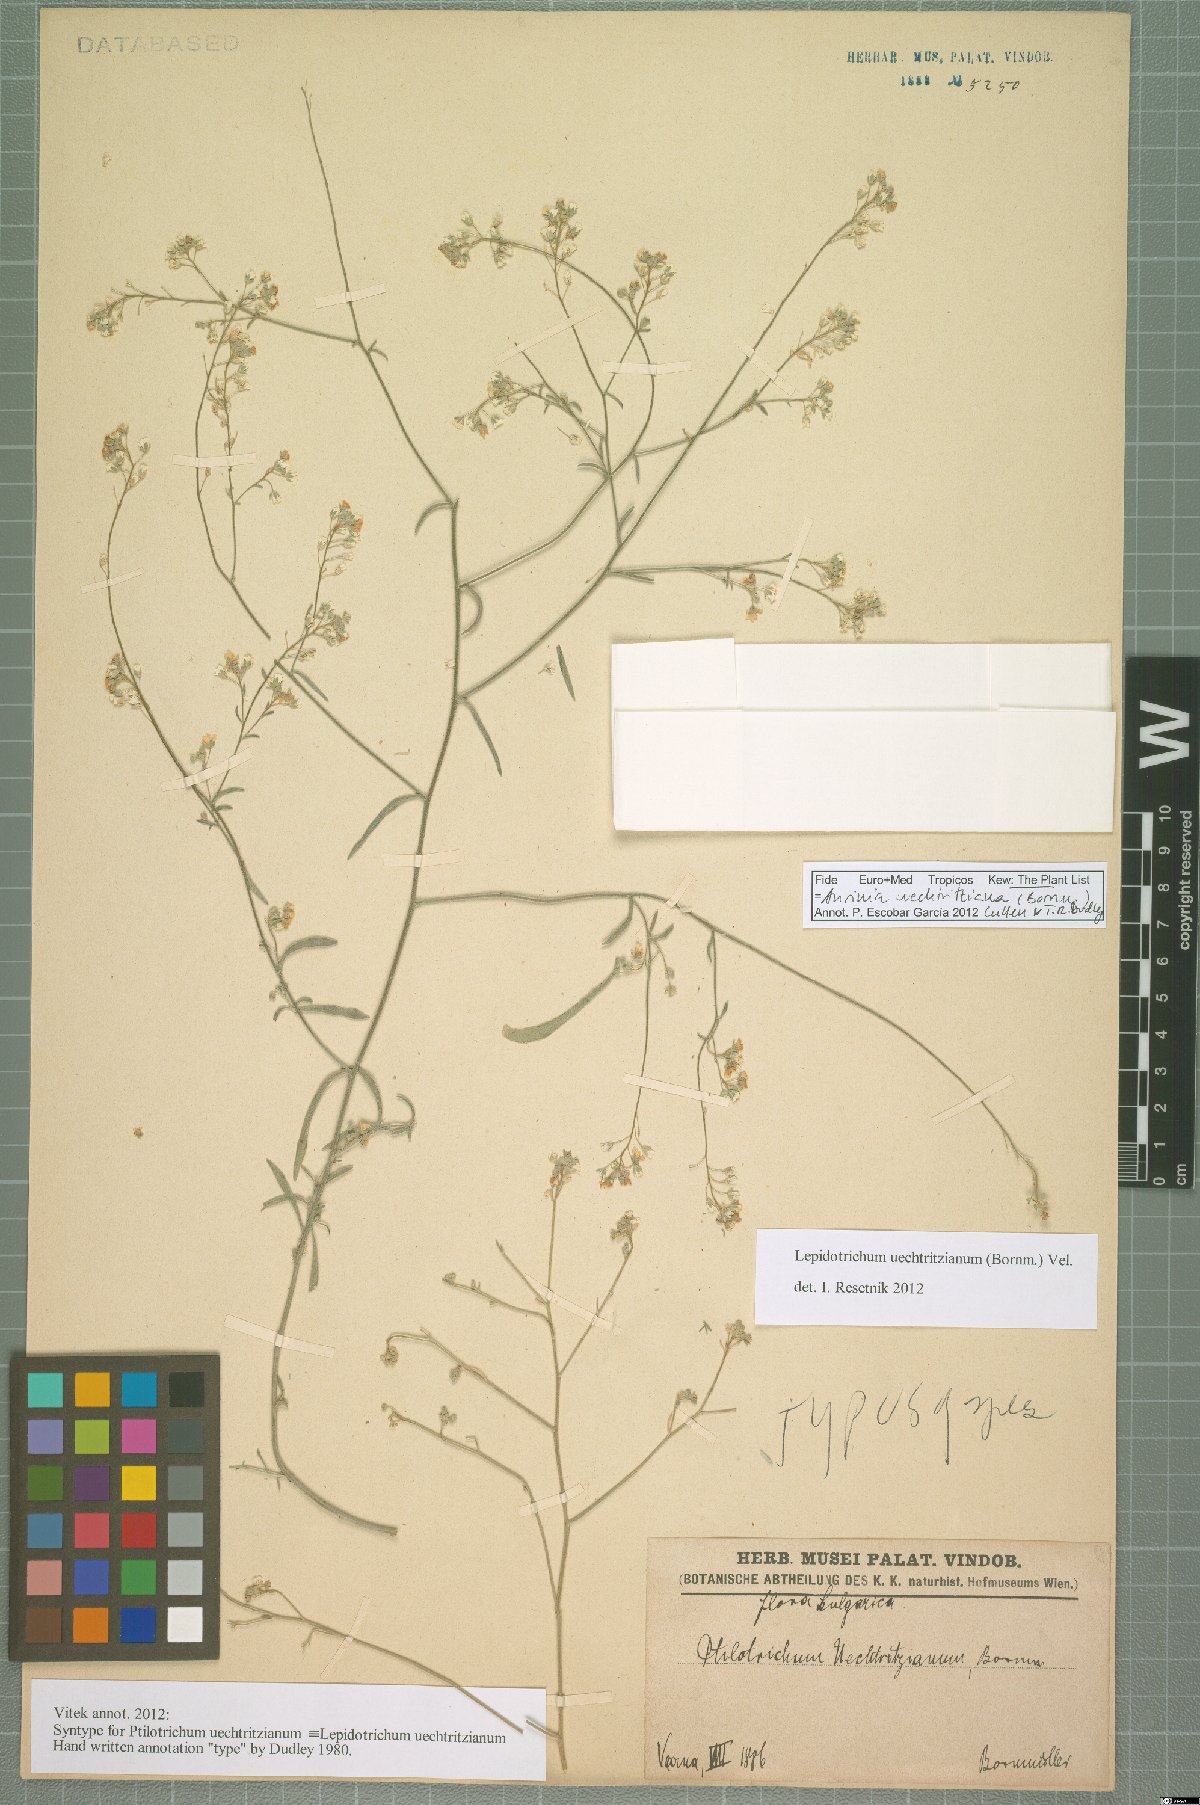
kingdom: Plantae
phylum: Tracheophyta
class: Magnoliopsida
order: Brassicales
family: Brassicaceae
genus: Lepidotrichum
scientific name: Lepidotrichum uechtritzianum
